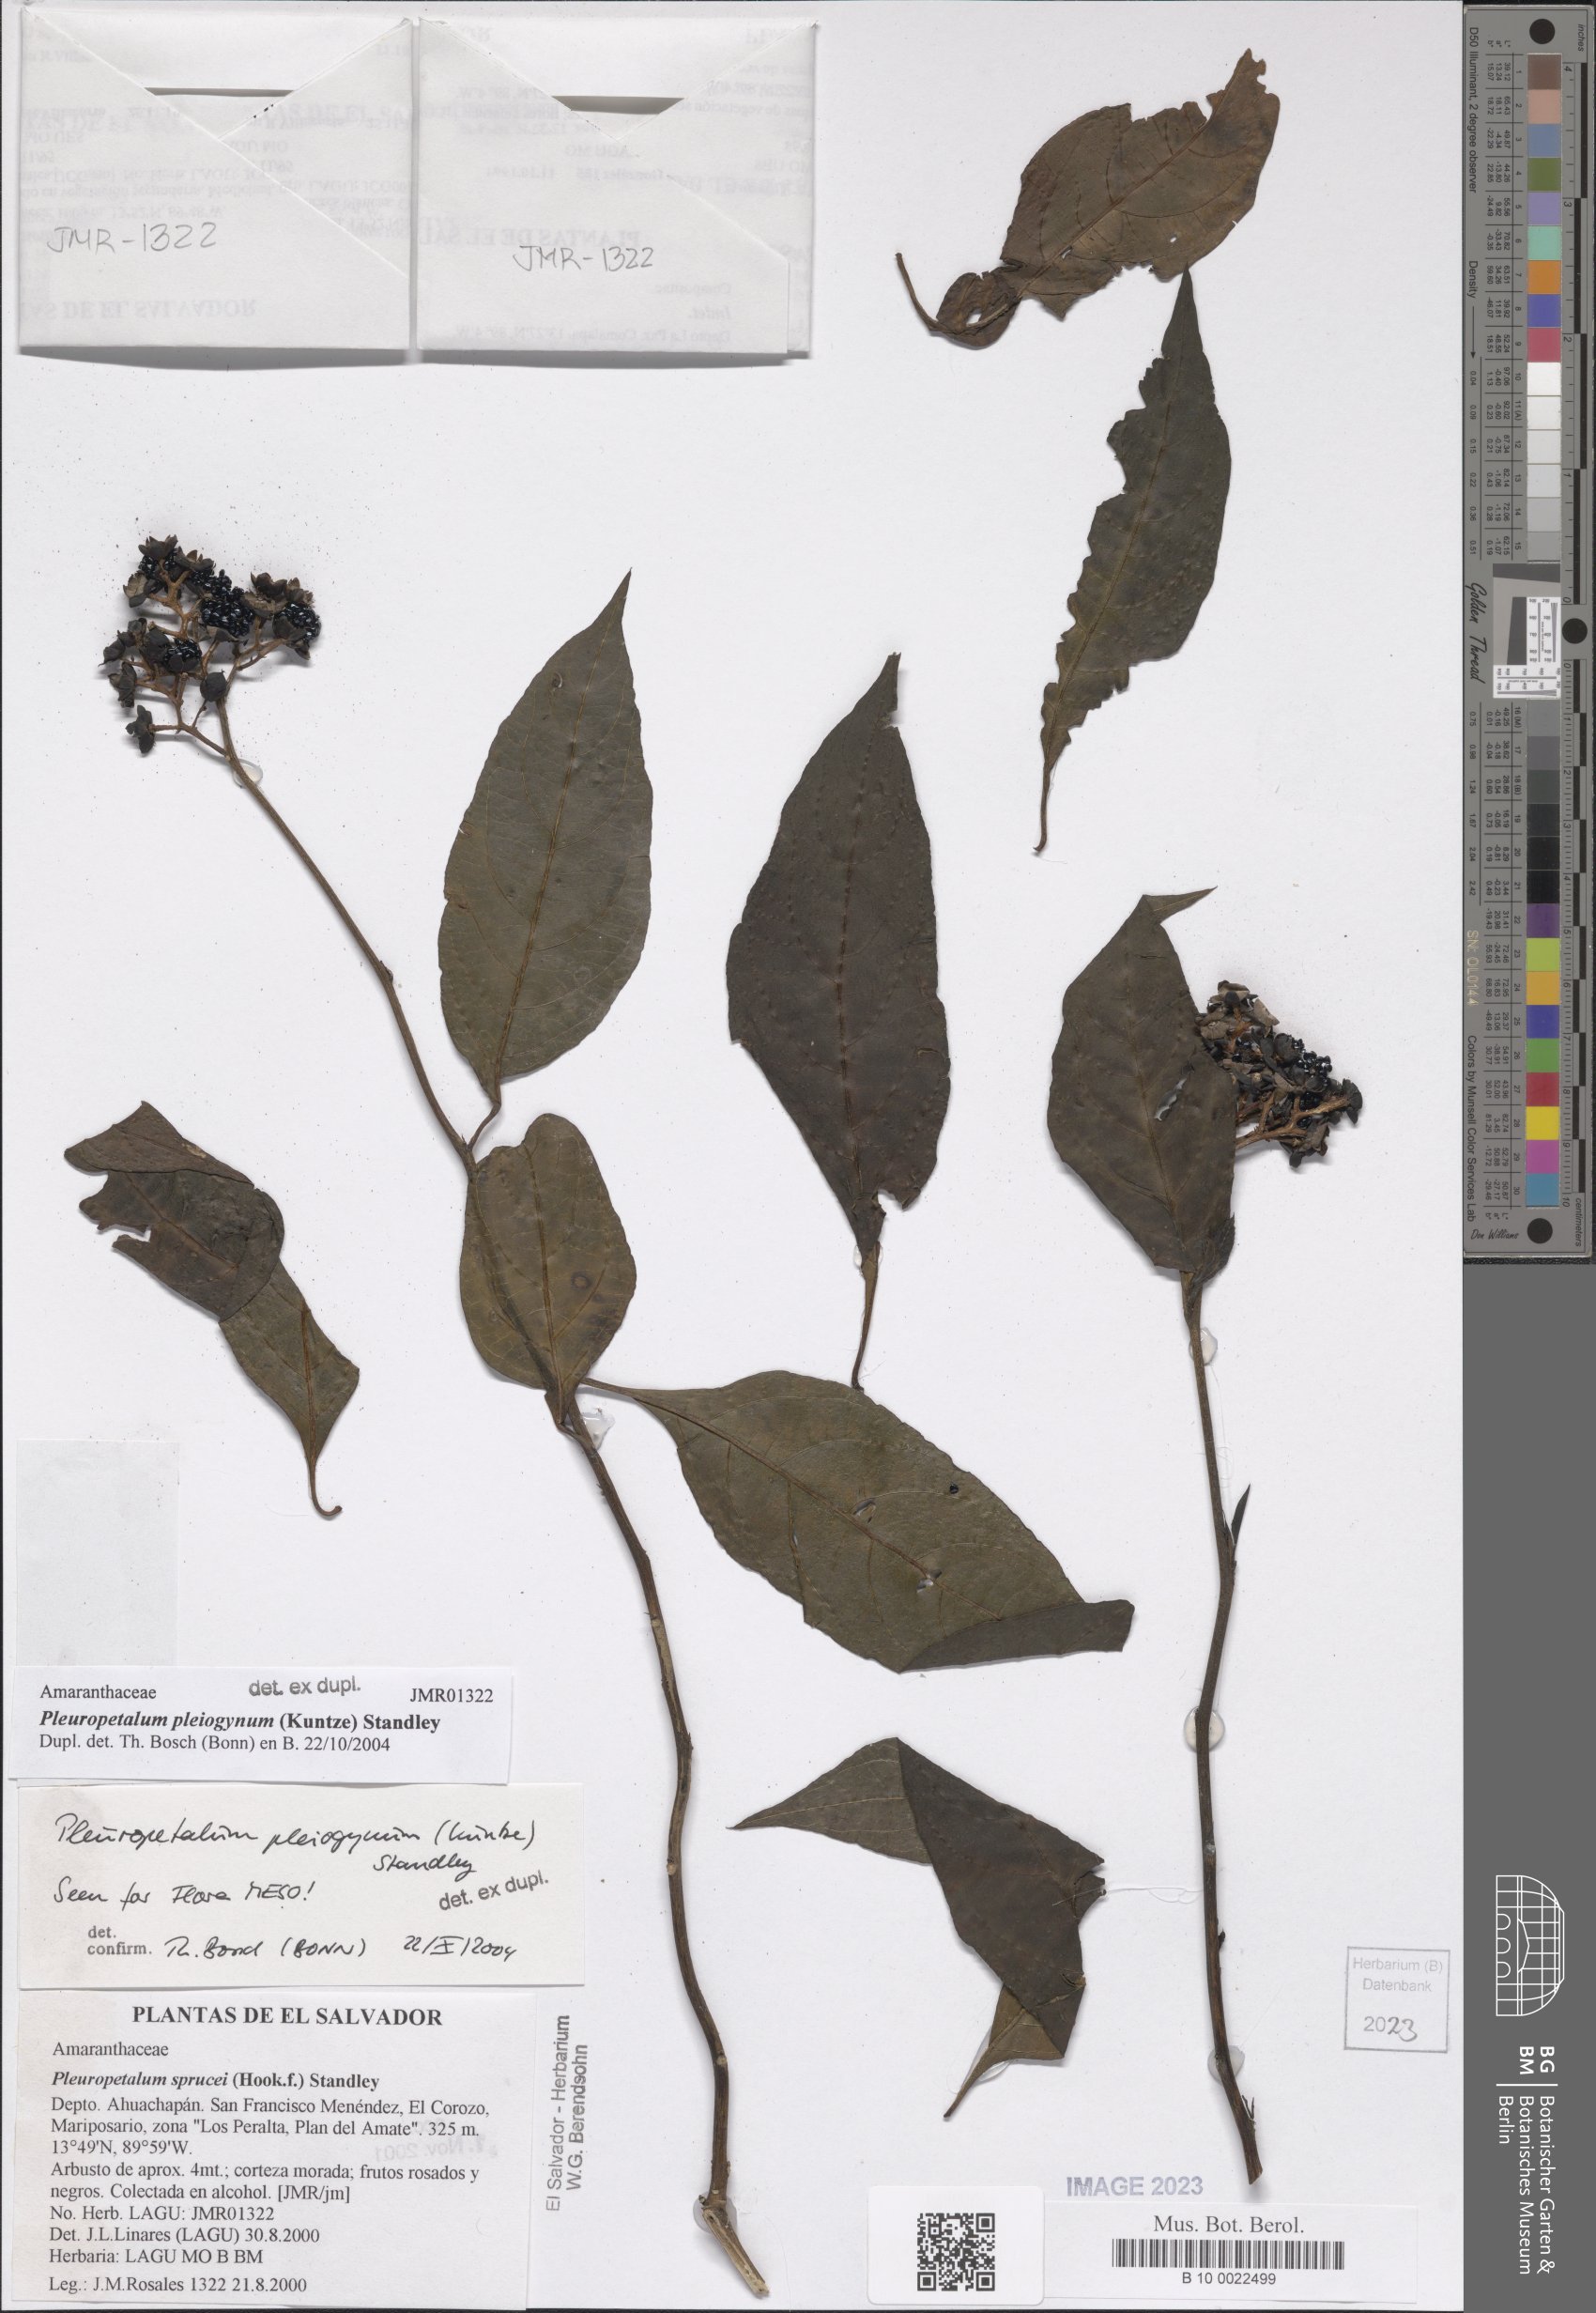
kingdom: Plantae
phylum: Tracheophyta
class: Magnoliopsida
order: Caryophyllales
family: Amaranthaceae
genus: Pleuropetalum
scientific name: Pleuropetalum pleiogynum
